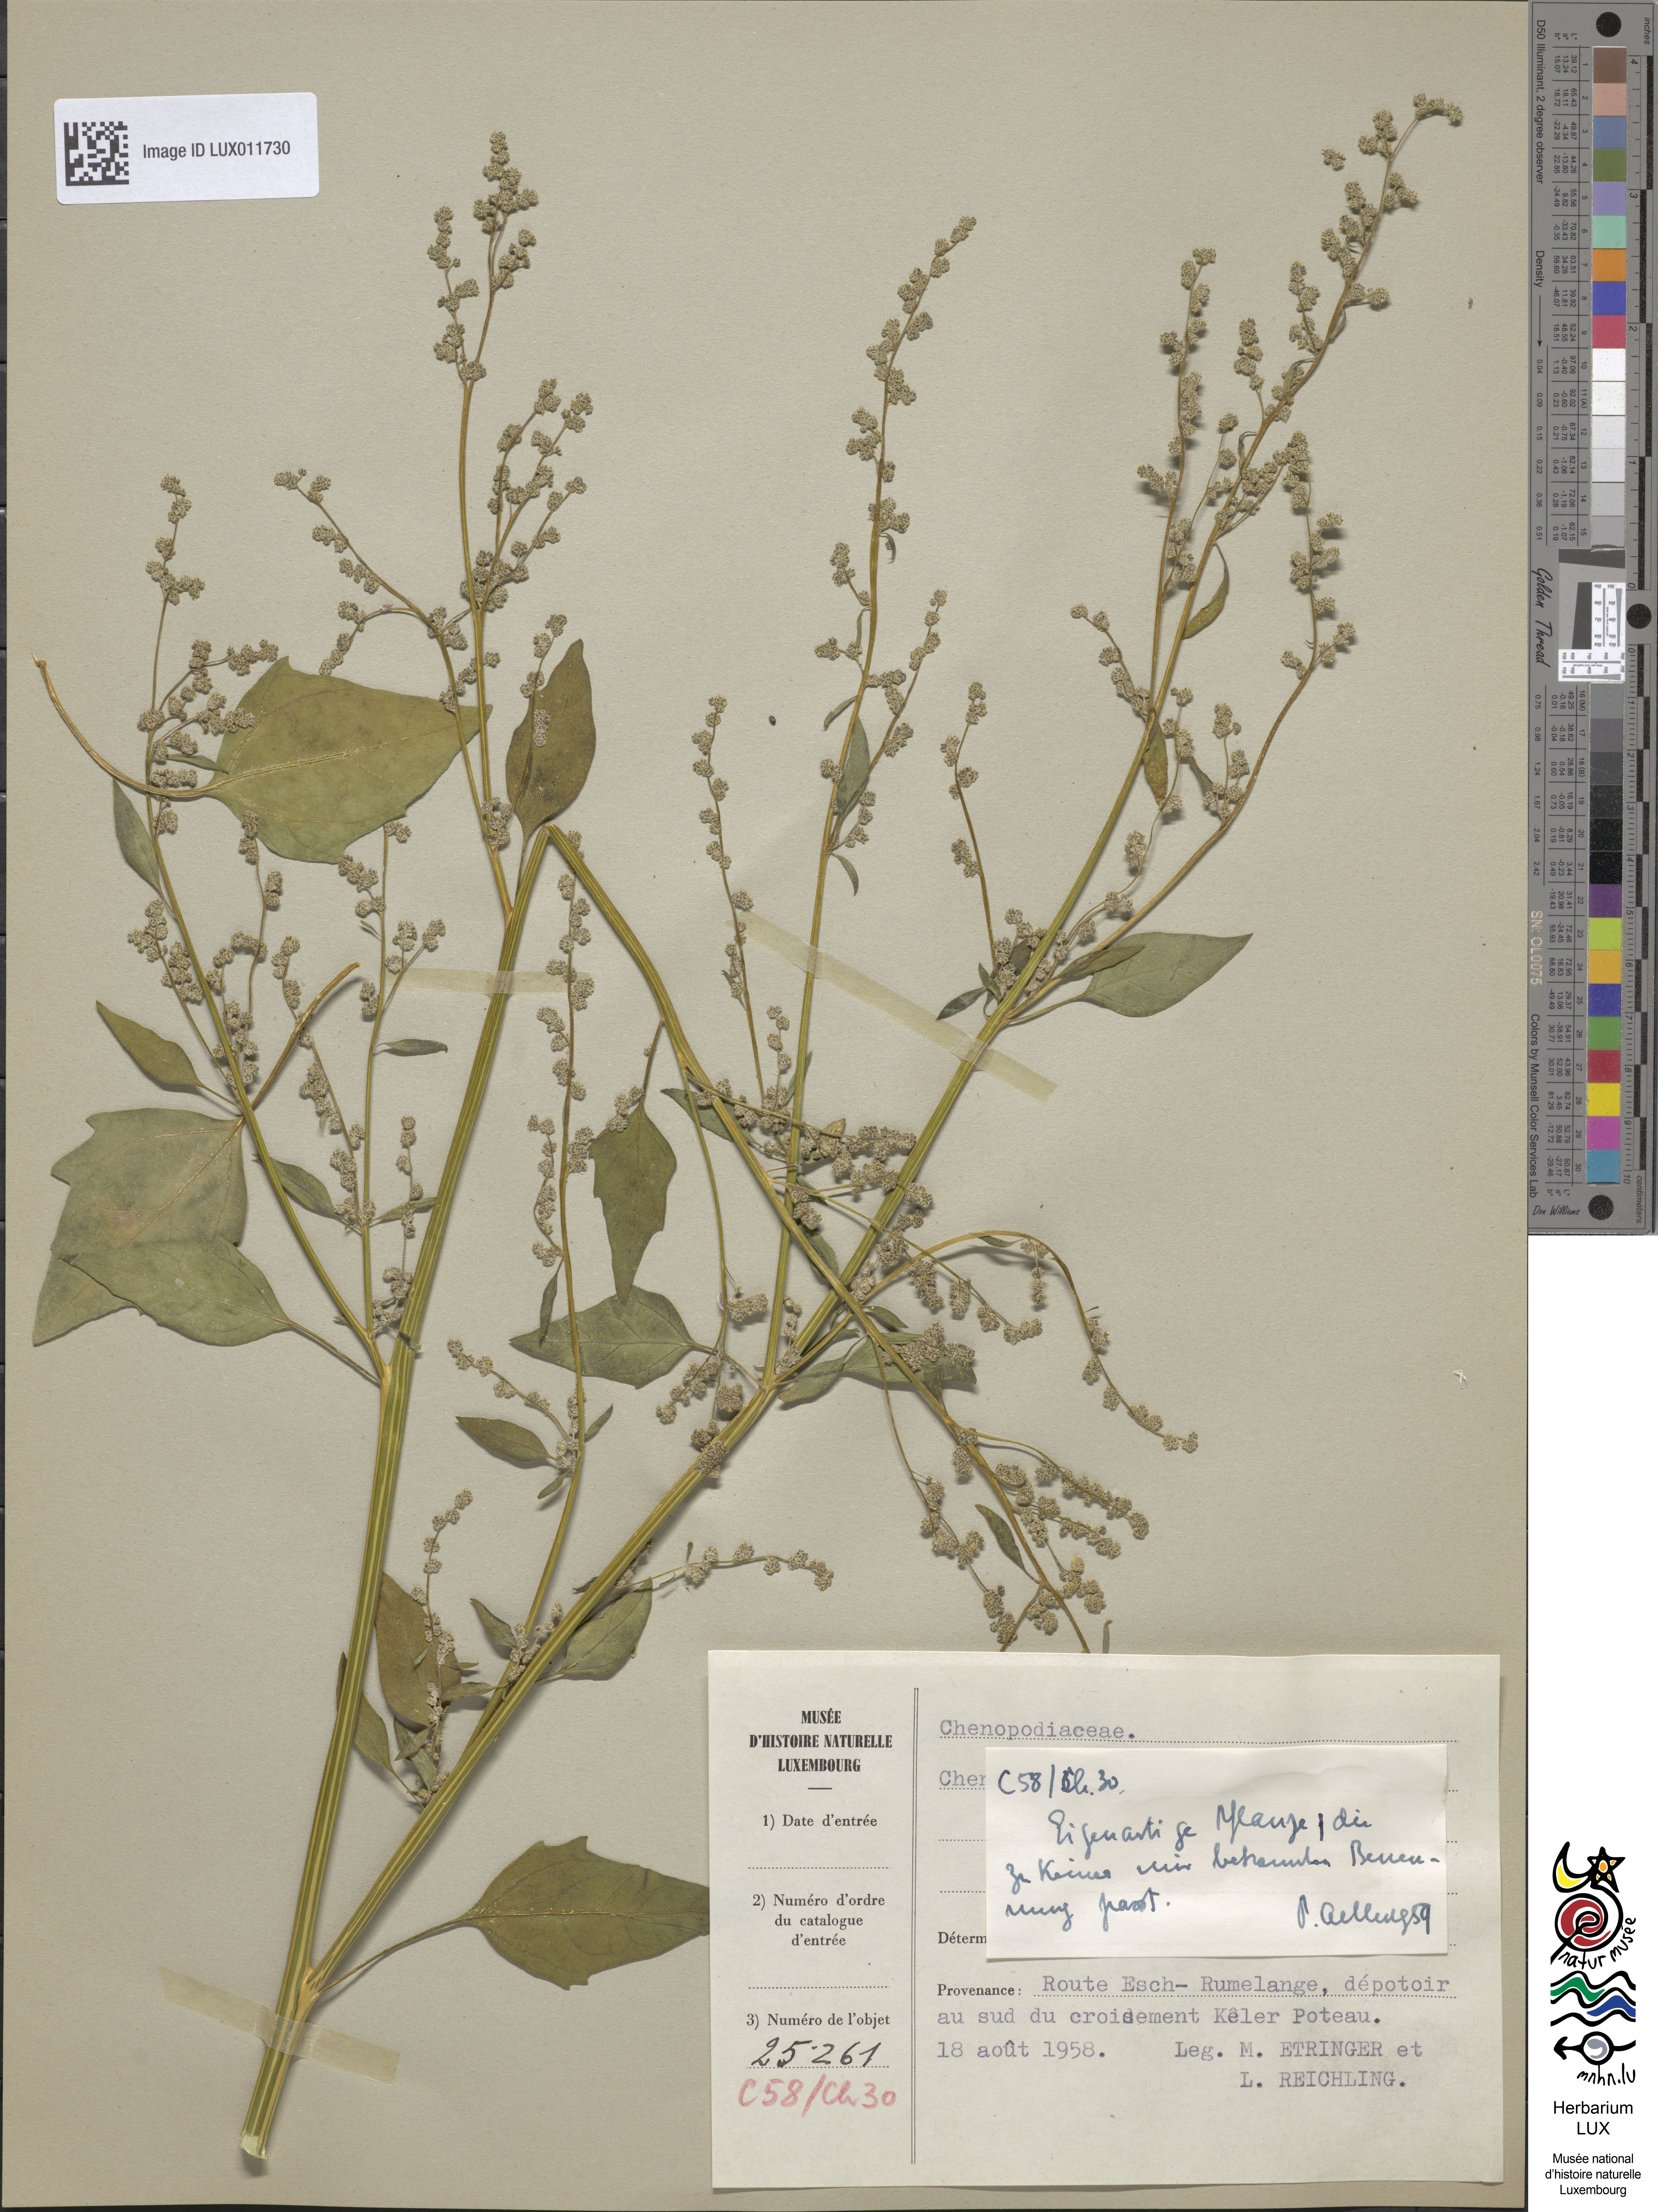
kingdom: Plantae
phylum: Tracheophyta
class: Magnoliopsida
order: Caryophyllales
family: Amaranthaceae
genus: Chenopodium
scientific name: Chenopodium
